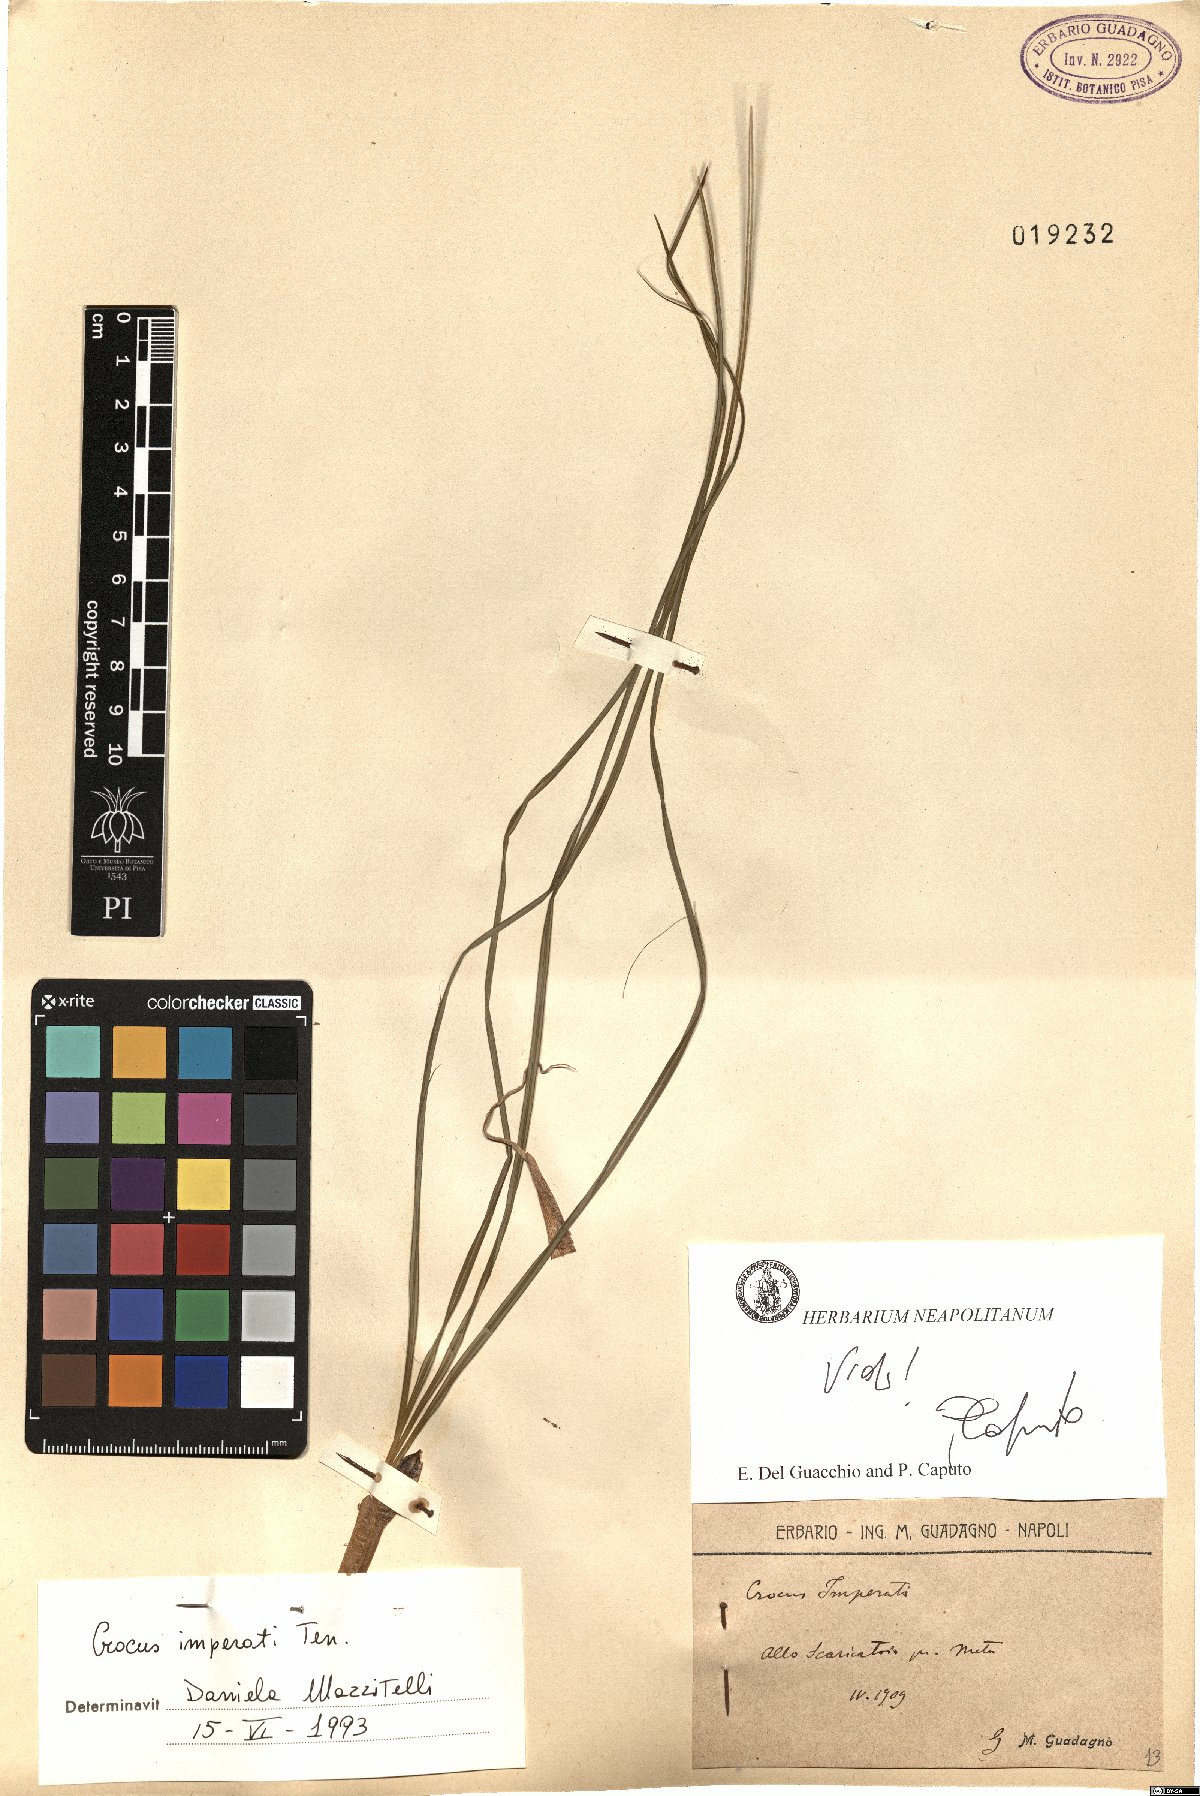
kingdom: Plantae
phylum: Tracheophyta
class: Liliopsida
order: Asparagales
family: Iridaceae
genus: Crocus
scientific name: Crocus imperati
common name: Early crocus
